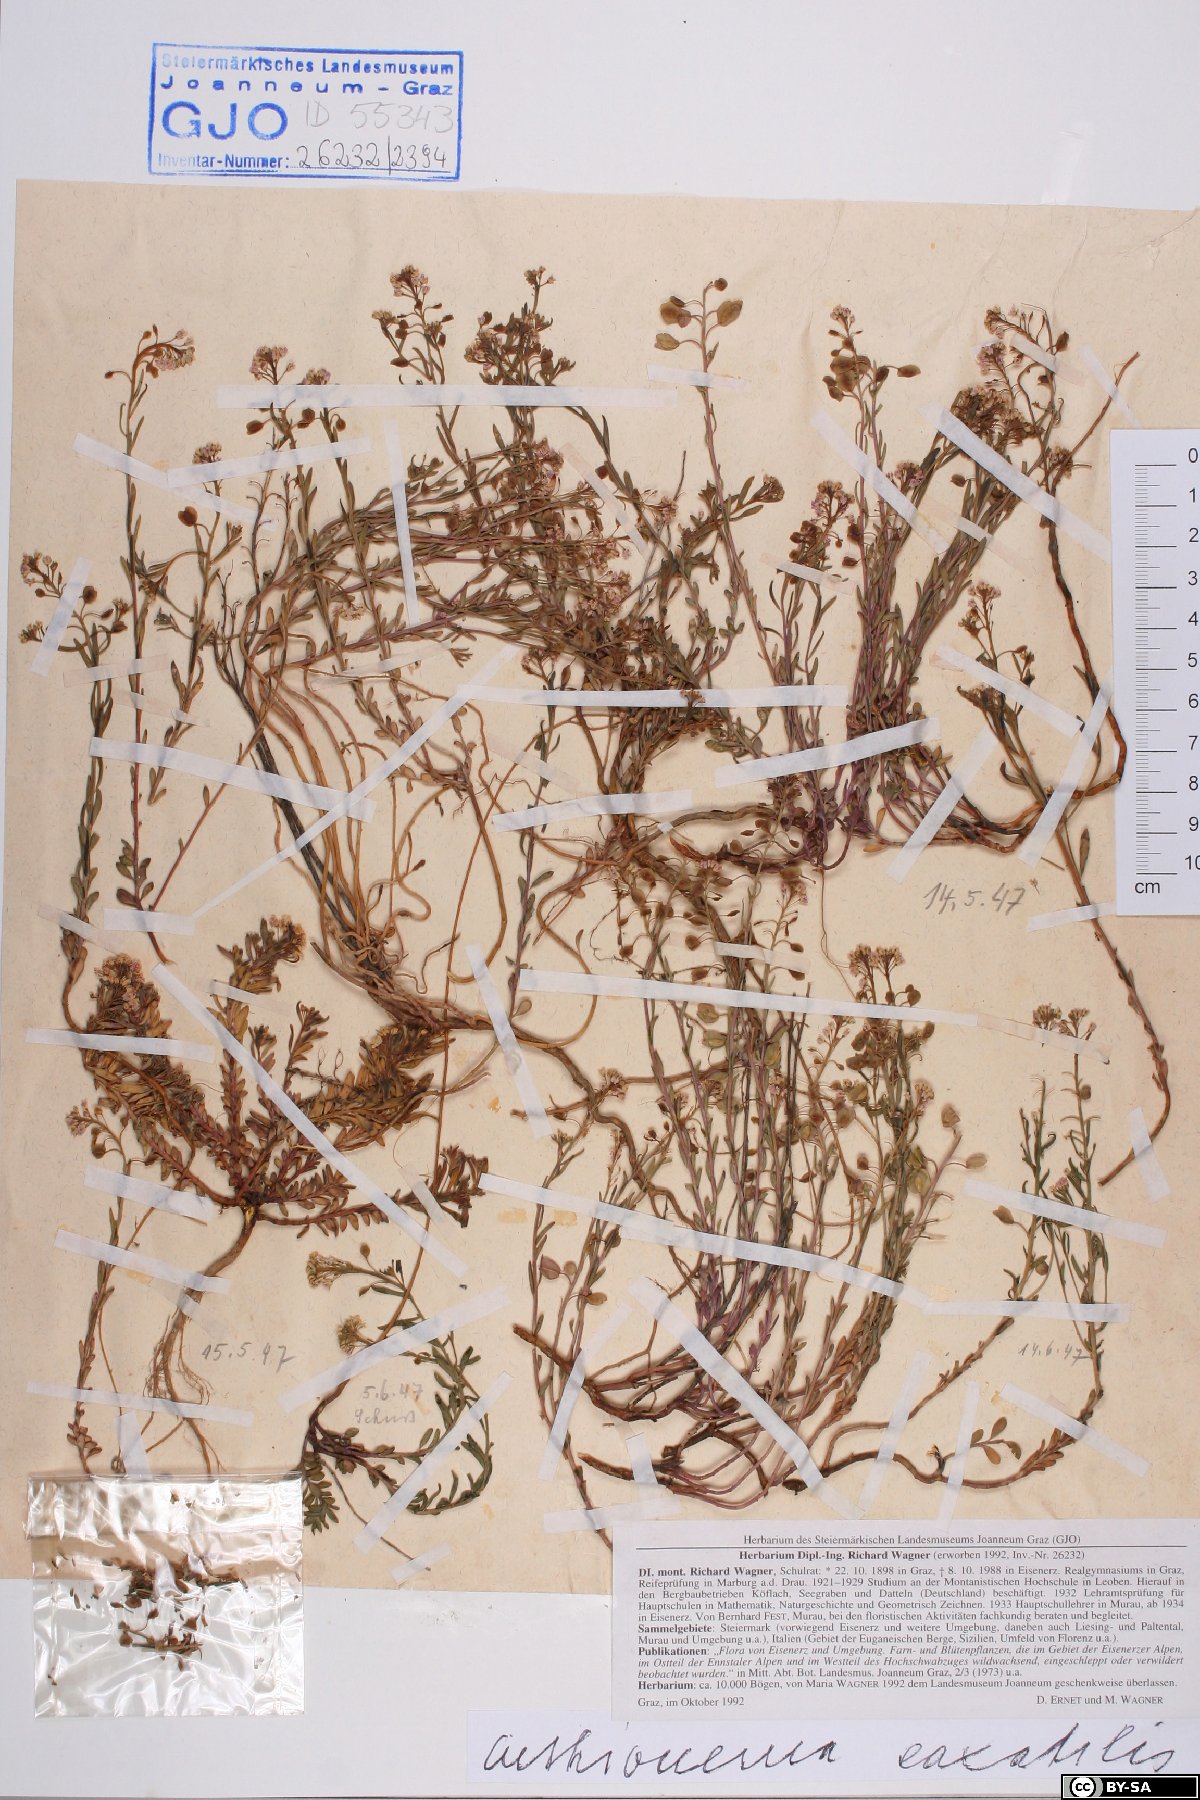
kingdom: Plantae
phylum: Tracheophyta
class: Magnoliopsida
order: Brassicales
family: Brassicaceae
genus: Aethionema
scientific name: Aethionema saxatile
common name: Burnt candytuft
